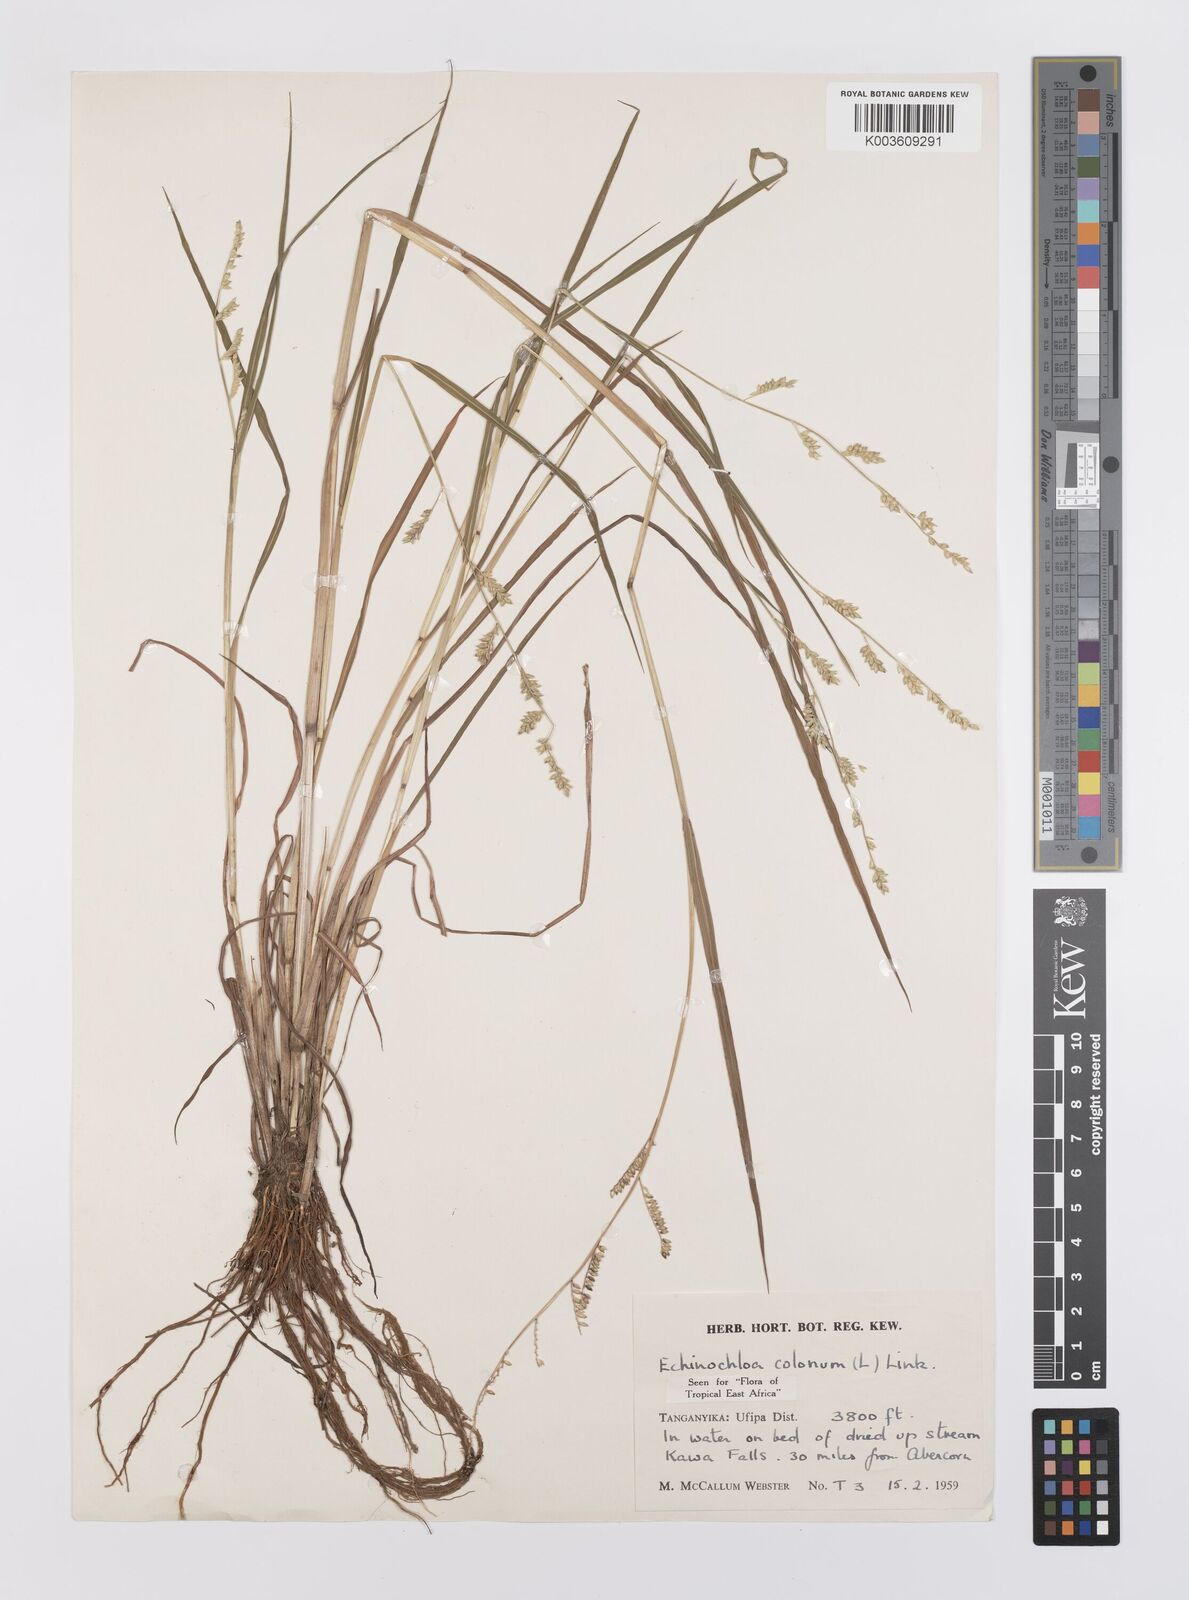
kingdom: Plantae
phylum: Tracheophyta
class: Liliopsida
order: Poales
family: Poaceae
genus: Echinochloa
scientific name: Echinochloa colonum
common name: Jungle rice
